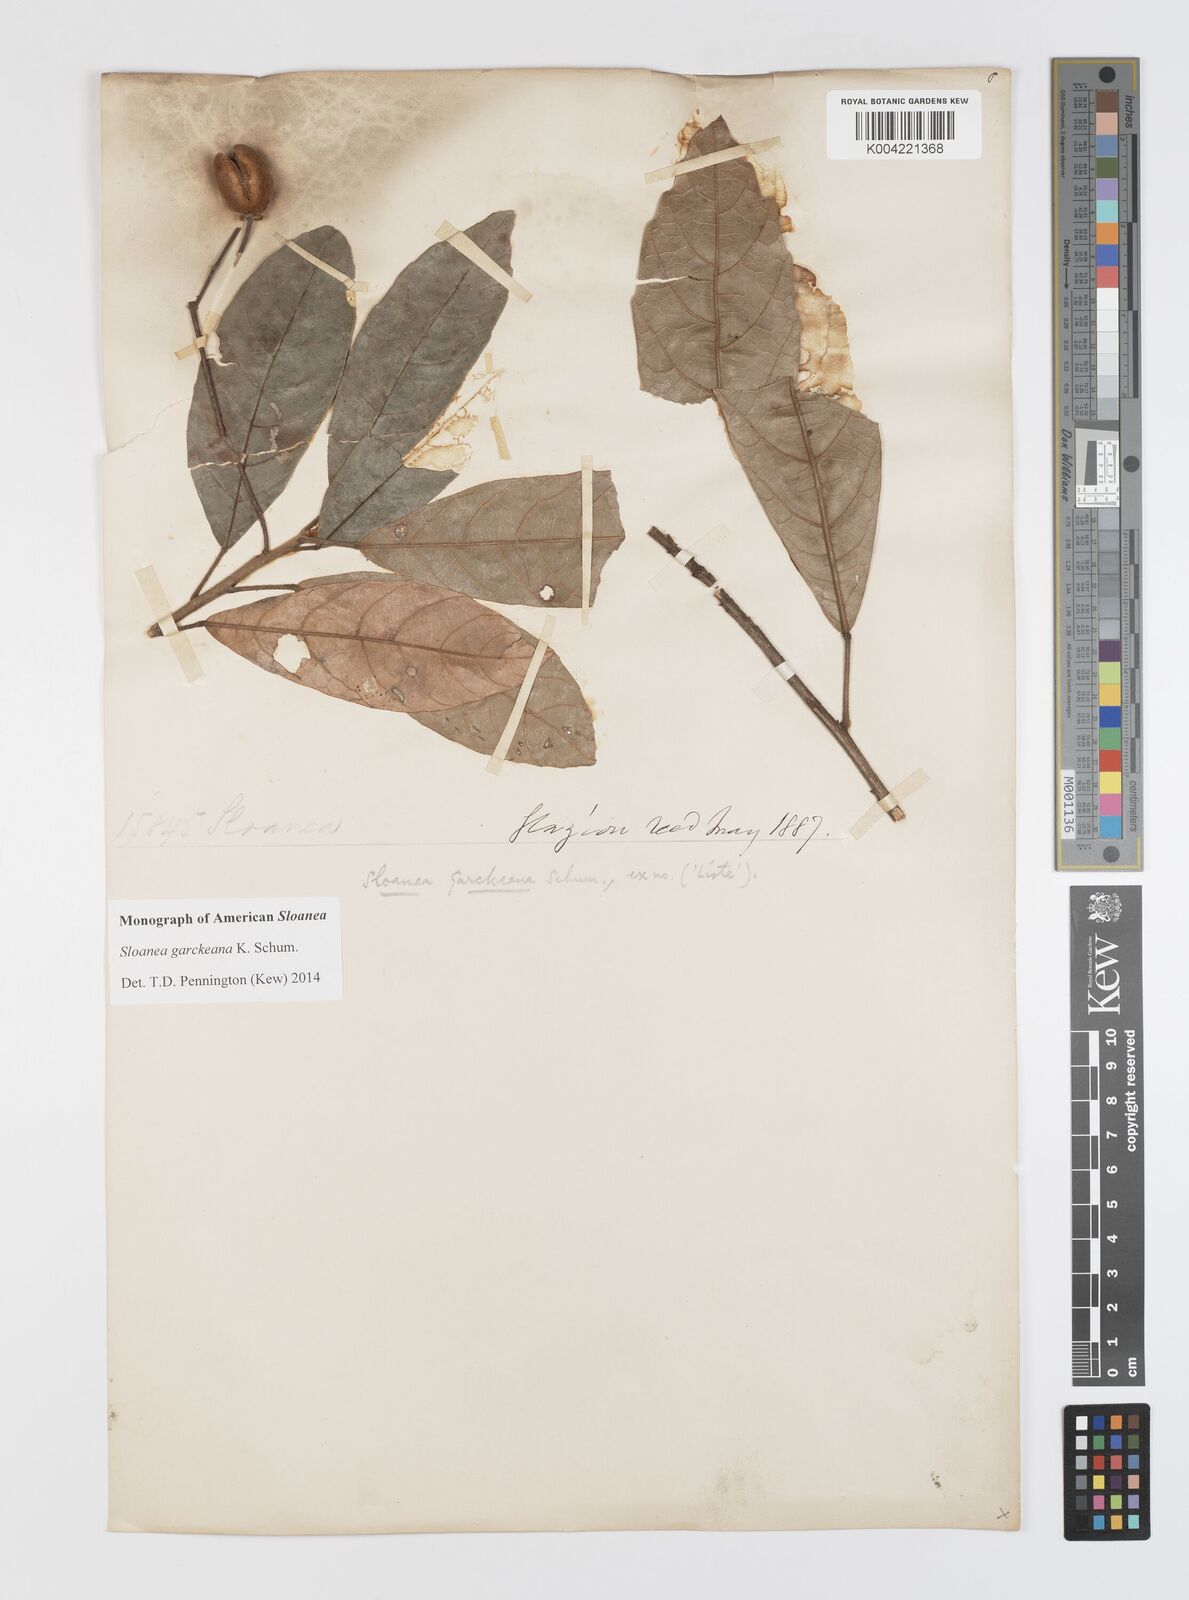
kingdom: Plantae
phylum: Tracheophyta
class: Magnoliopsida
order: Oxalidales
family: Elaeocarpaceae
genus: Sloanea
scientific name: Sloanea garckeana
